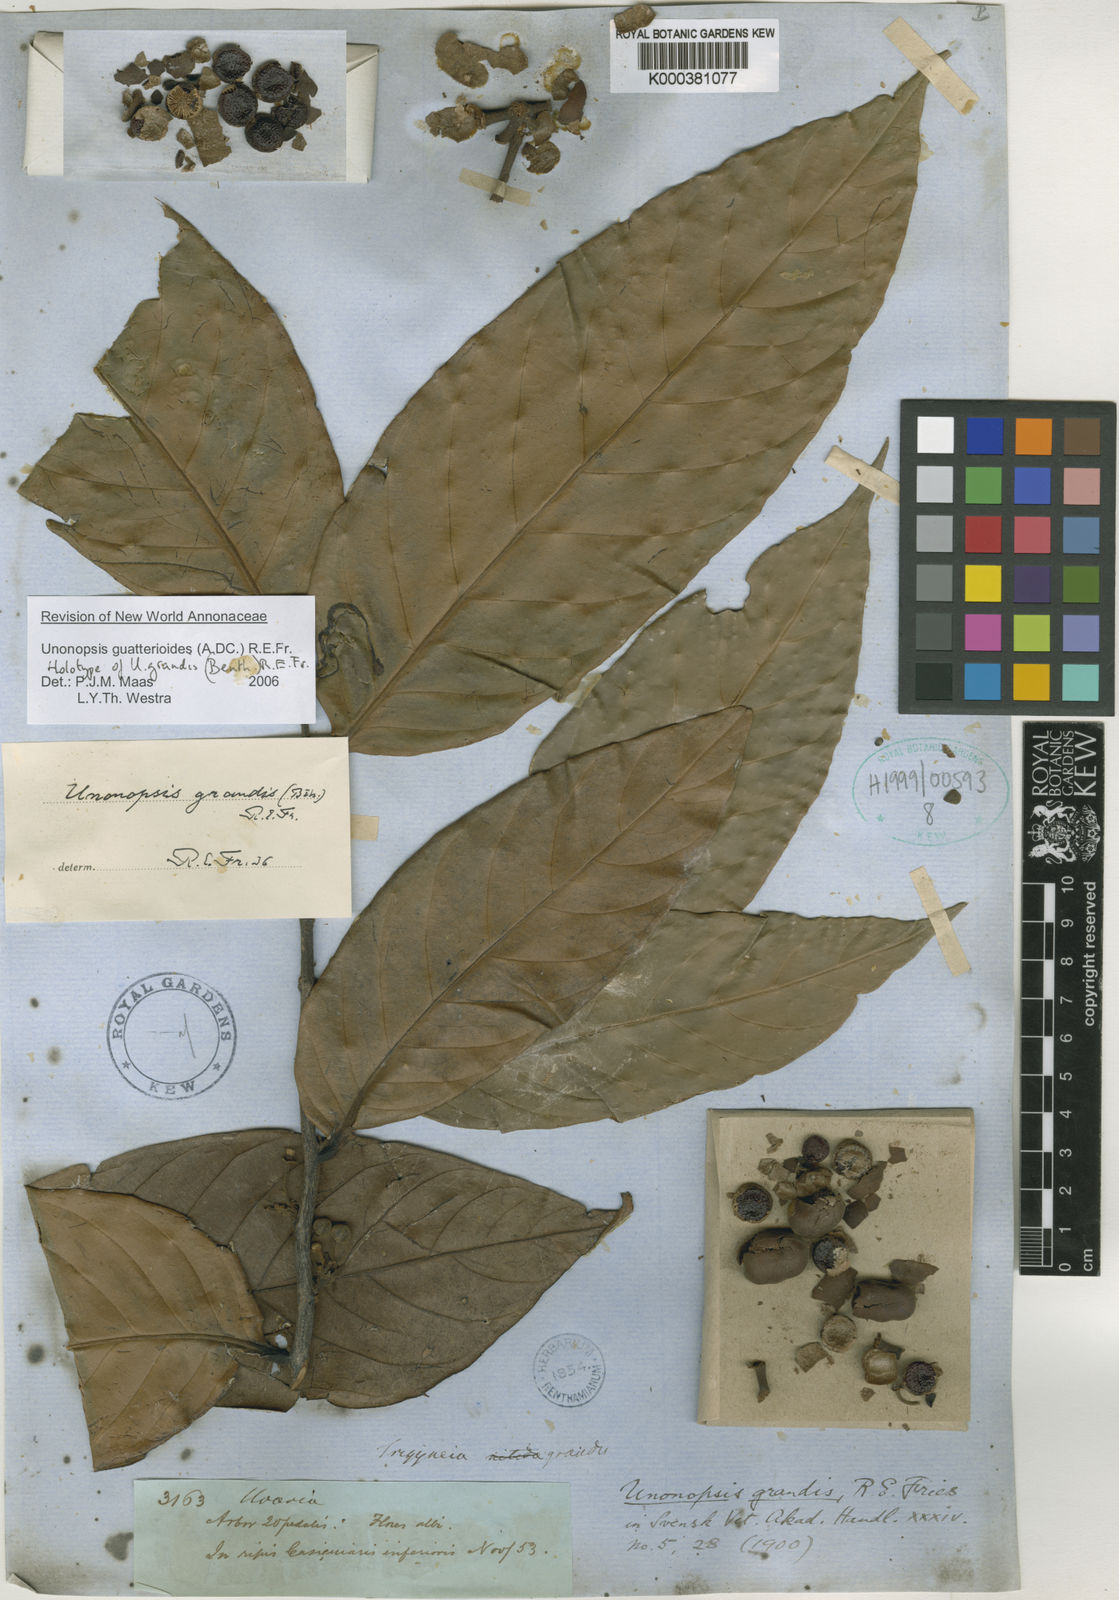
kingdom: Plantae
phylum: Tracheophyta
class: Magnoliopsida
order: Magnoliales
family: Annonaceae
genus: Unonopsis
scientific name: Unonopsis guatterioides
